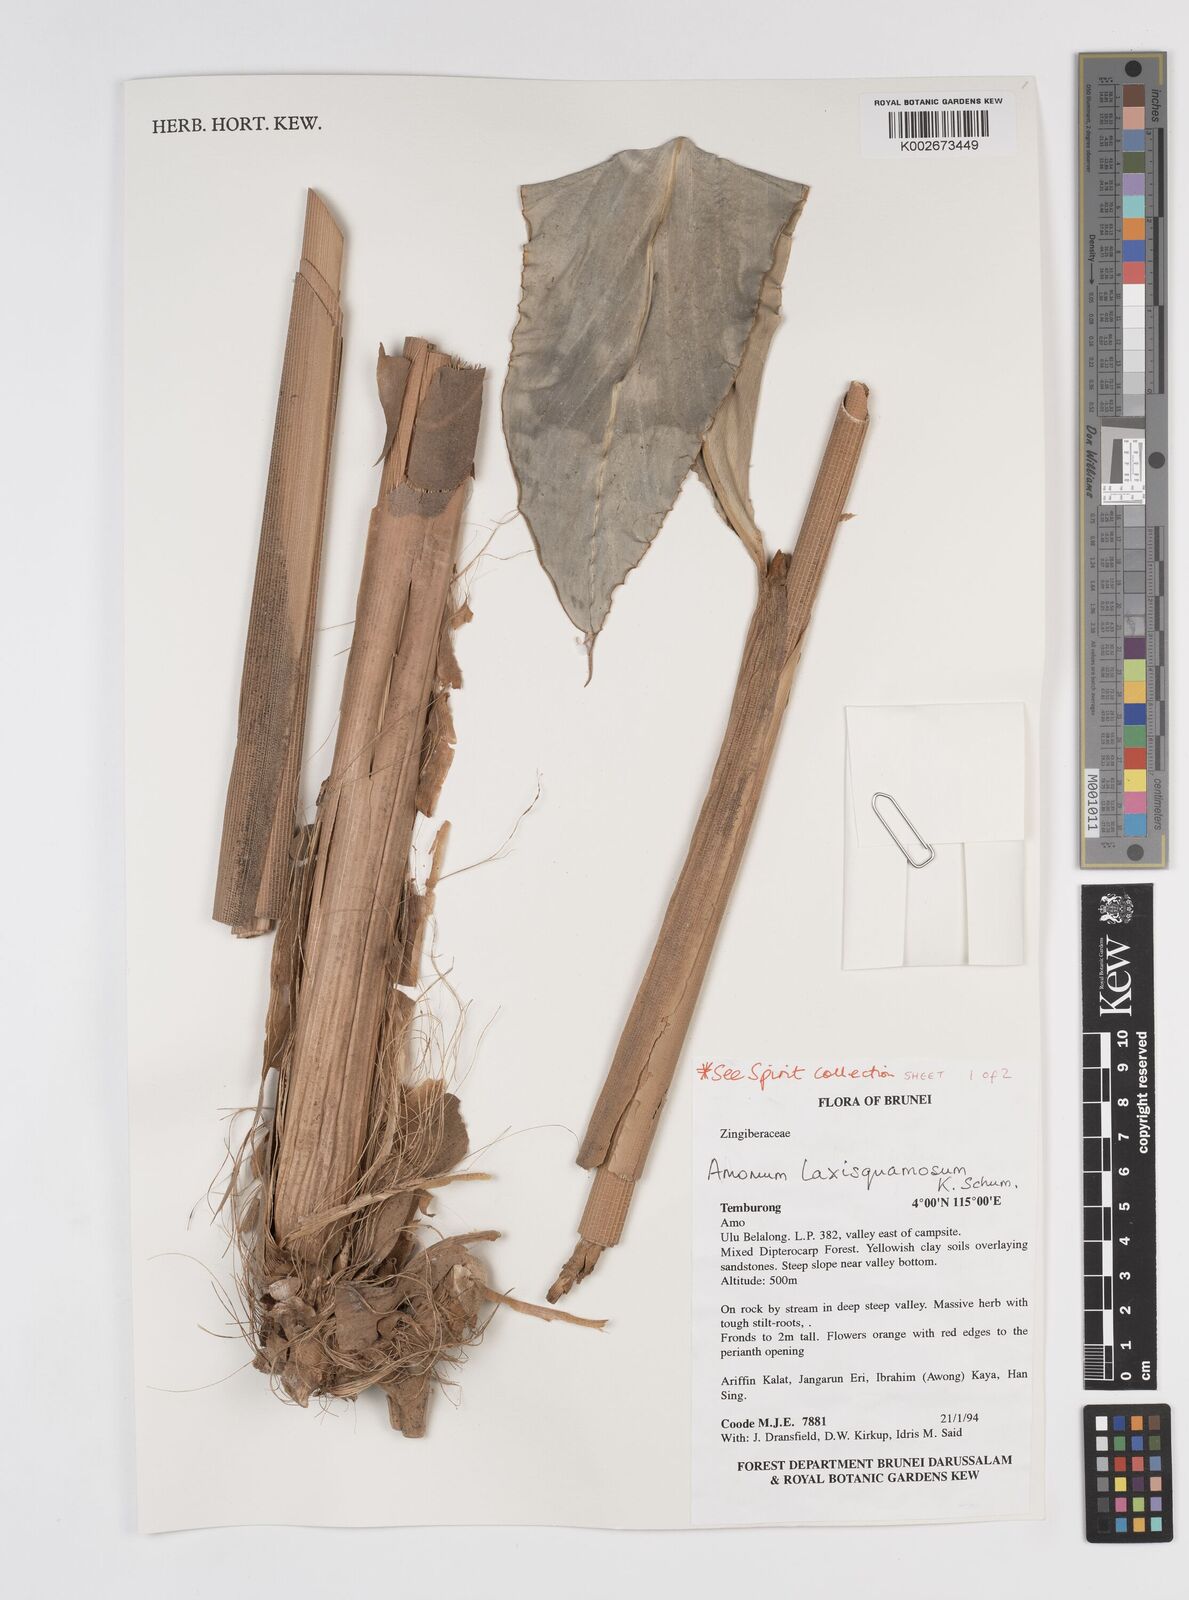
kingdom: Plantae
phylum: Tracheophyta
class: Liliopsida
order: Zingiberales
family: Zingiberaceae
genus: Sundamomum
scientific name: Sundamomum laxesquamosum
